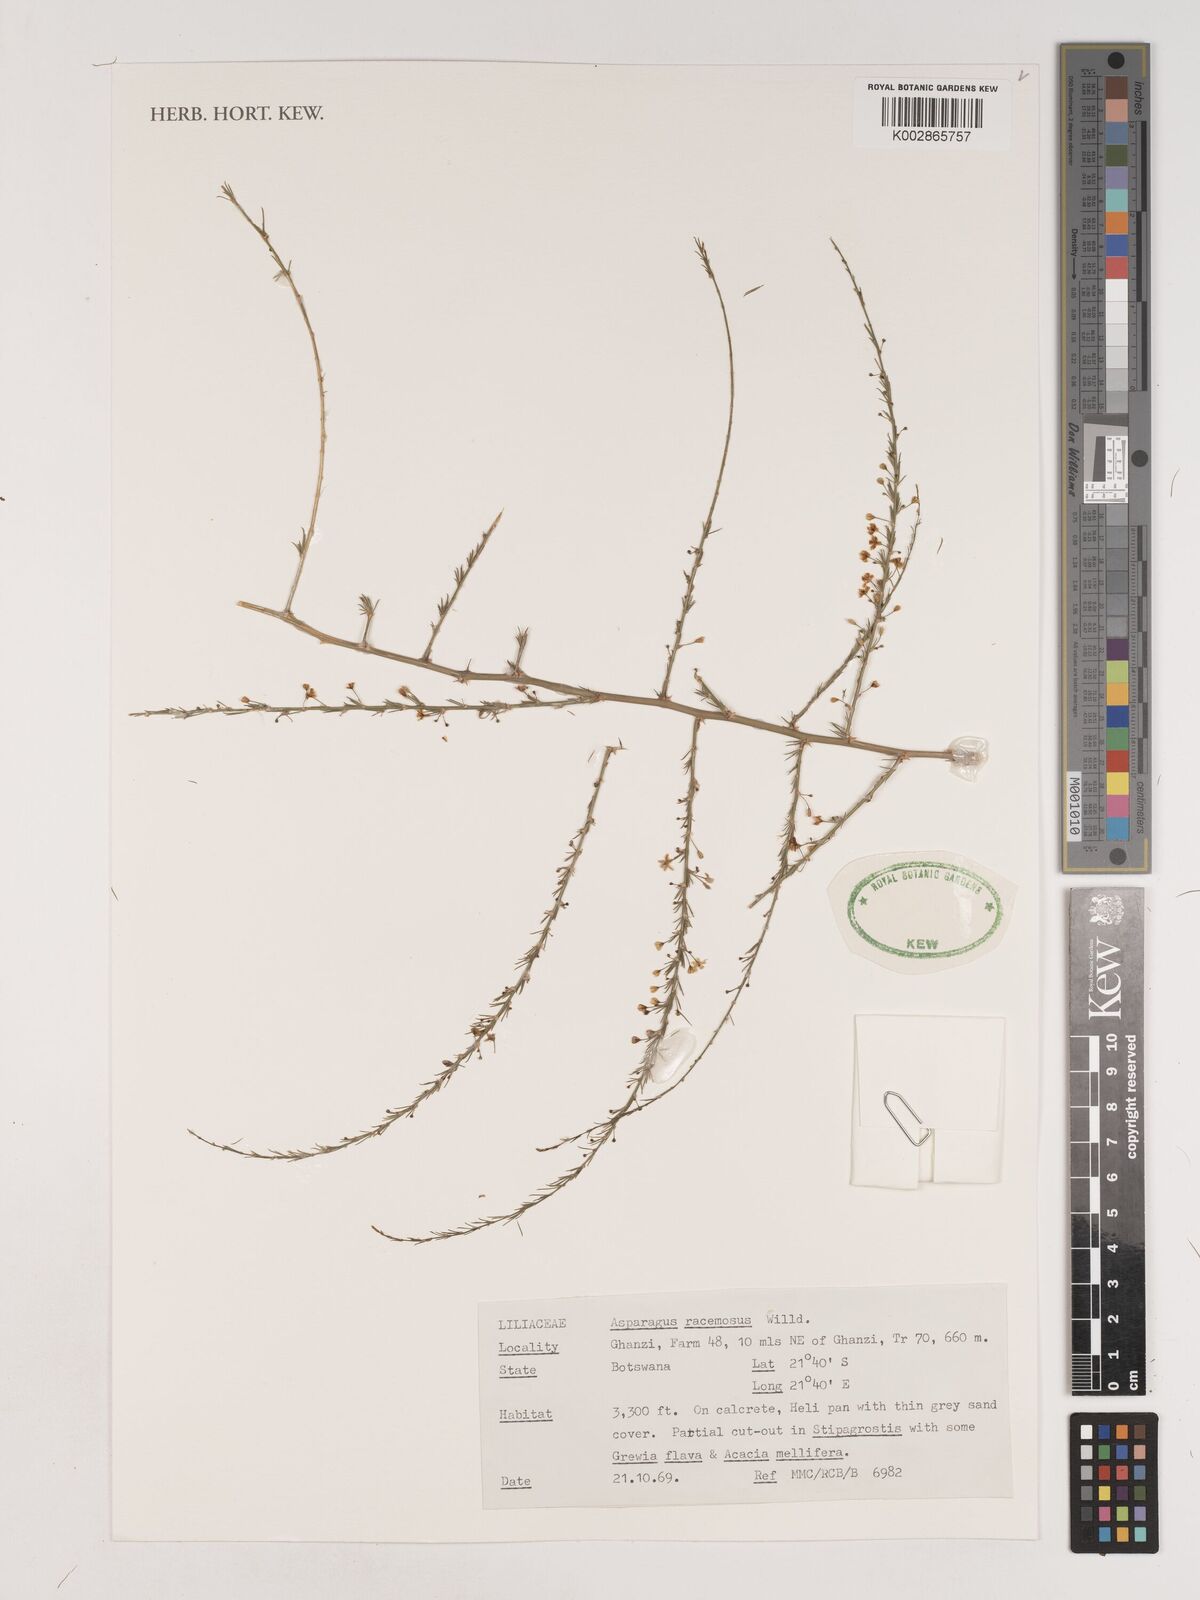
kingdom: Plantae
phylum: Tracheophyta
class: Liliopsida
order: Asparagales
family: Asparagaceae
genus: Asparagus
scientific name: Asparagus racemosus
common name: Asparagus-fern
